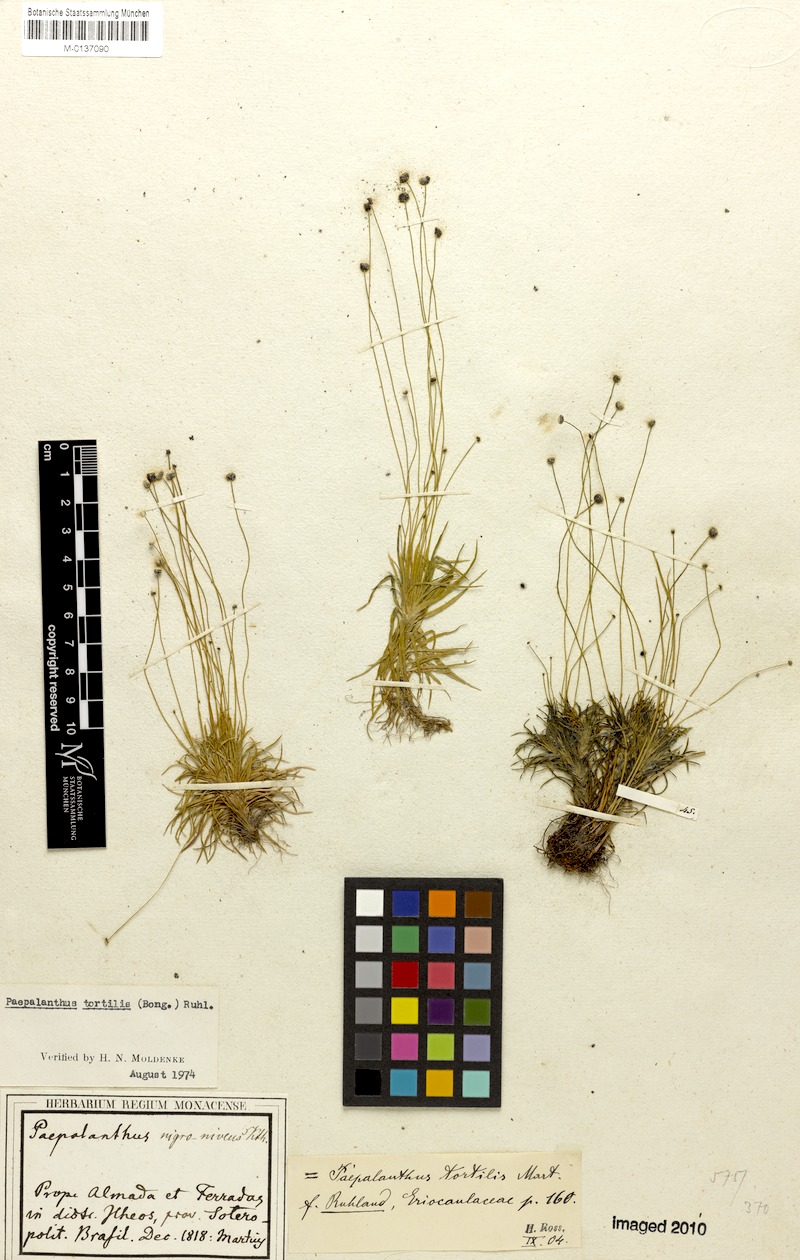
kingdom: Plantae
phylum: Tracheophyta
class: Liliopsida
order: Poales
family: Eriocaulaceae
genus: Paepalanthus
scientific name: Paepalanthus tortilis
